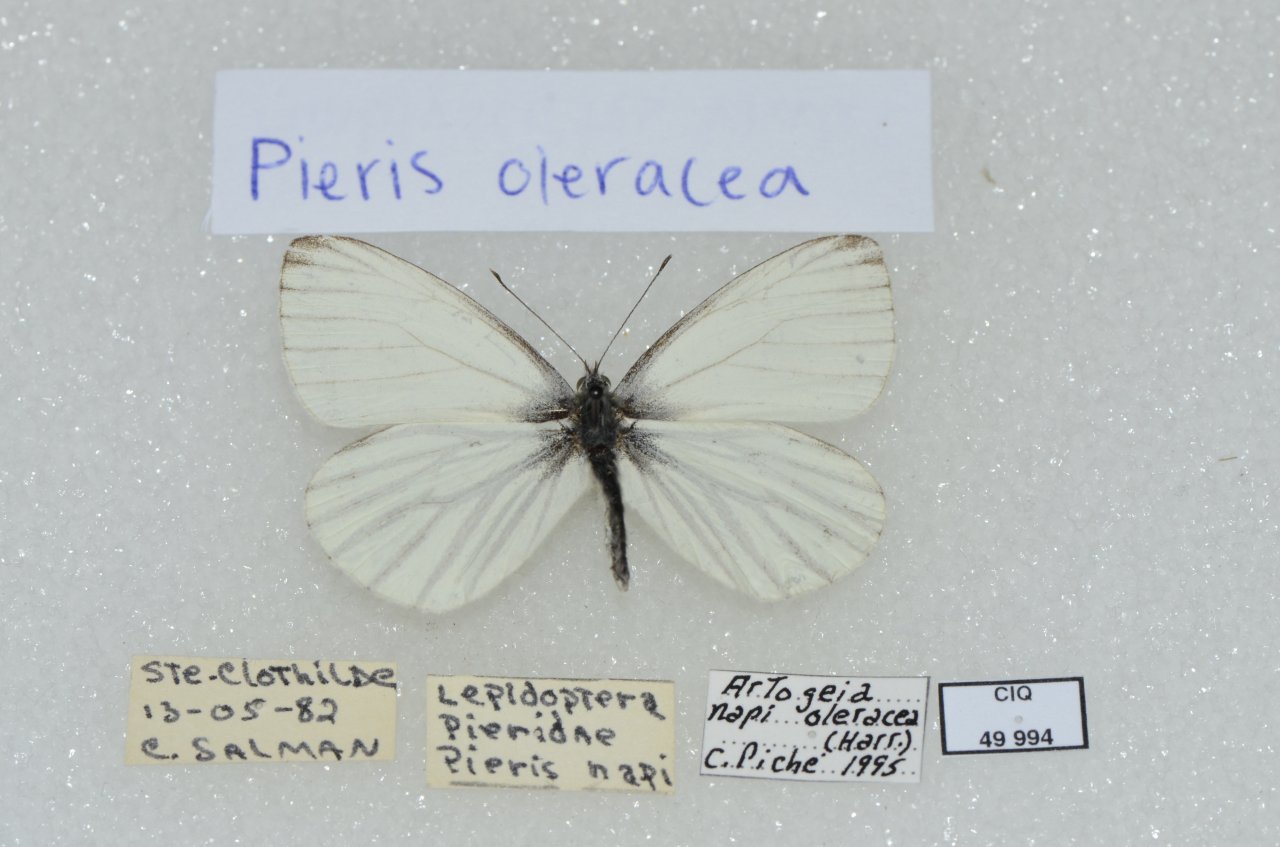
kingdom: Animalia
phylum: Arthropoda
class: Insecta
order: Lepidoptera
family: Pieridae
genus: Pieris
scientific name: Pieris oleracea
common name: Mustard White
